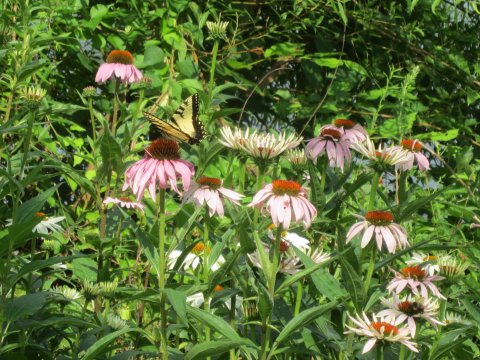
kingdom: Animalia
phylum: Arthropoda
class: Insecta
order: Lepidoptera
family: Papilionidae
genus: Pterourus
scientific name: Pterourus glaucus
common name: Eastern Tiger Swallowtail
